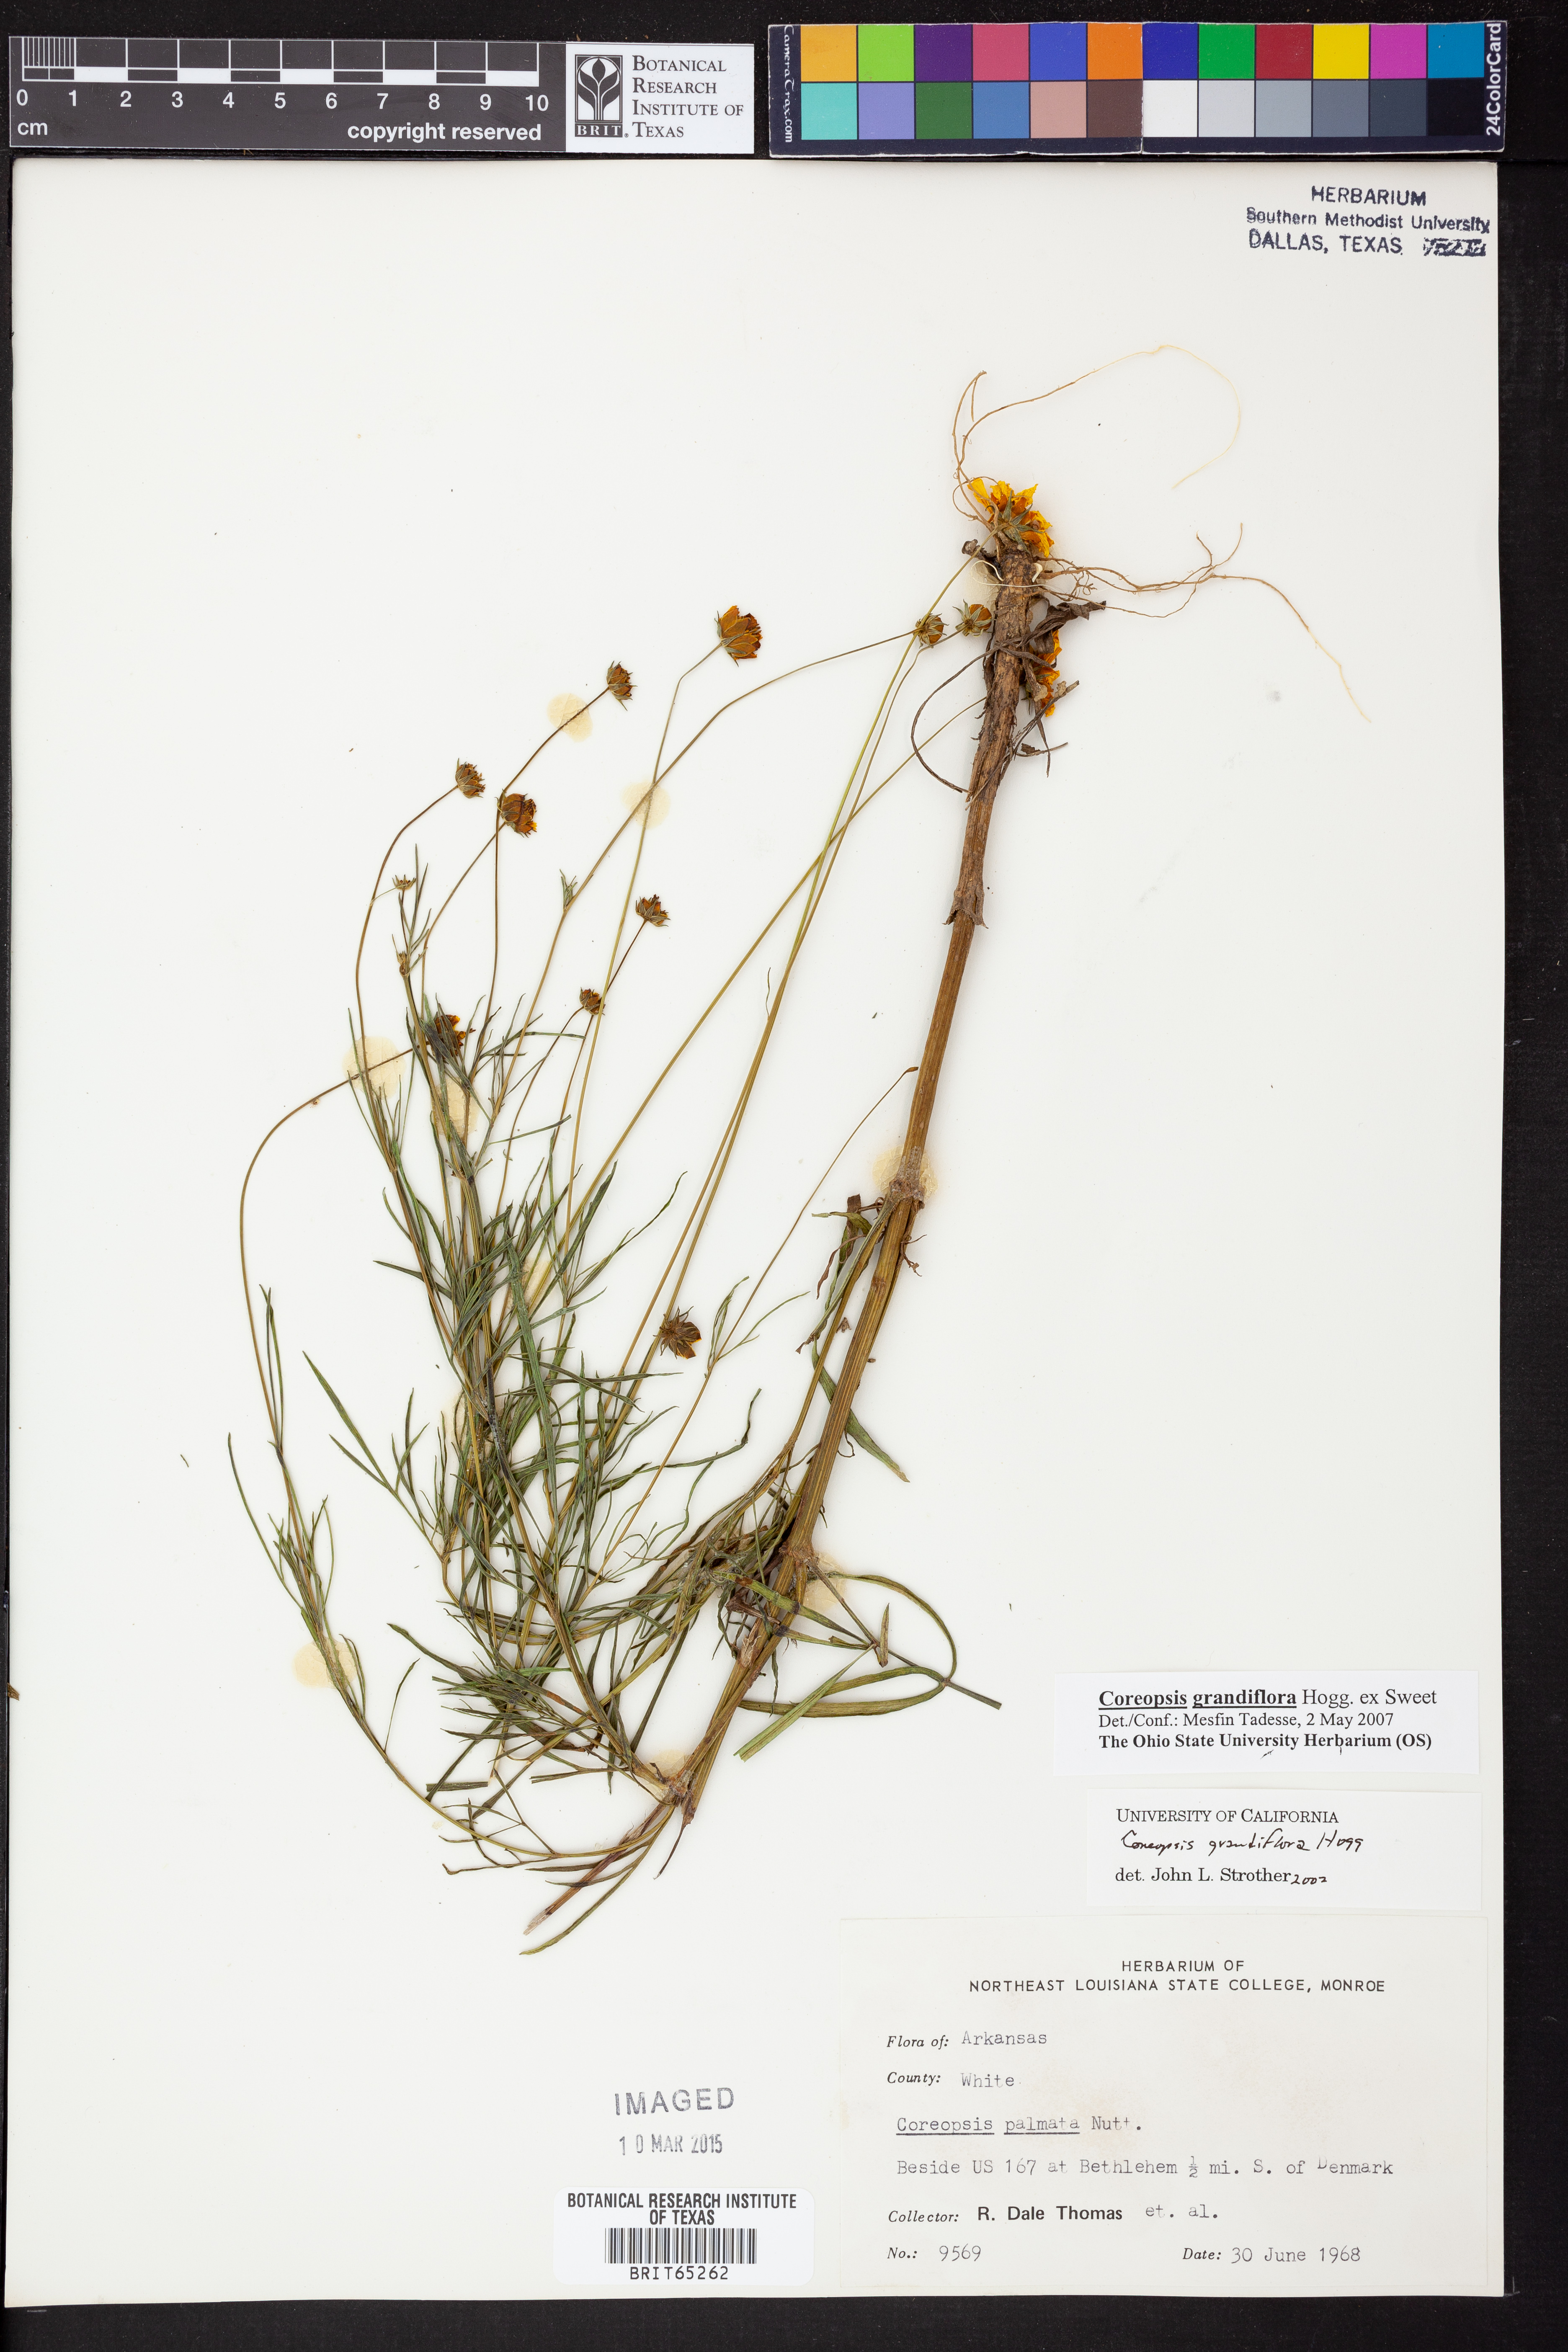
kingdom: Plantae
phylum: Tracheophyta
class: Magnoliopsida
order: Asterales
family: Asteraceae
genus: Coreopsis
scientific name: Coreopsis grandiflora
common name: Large-flowered tickseed
